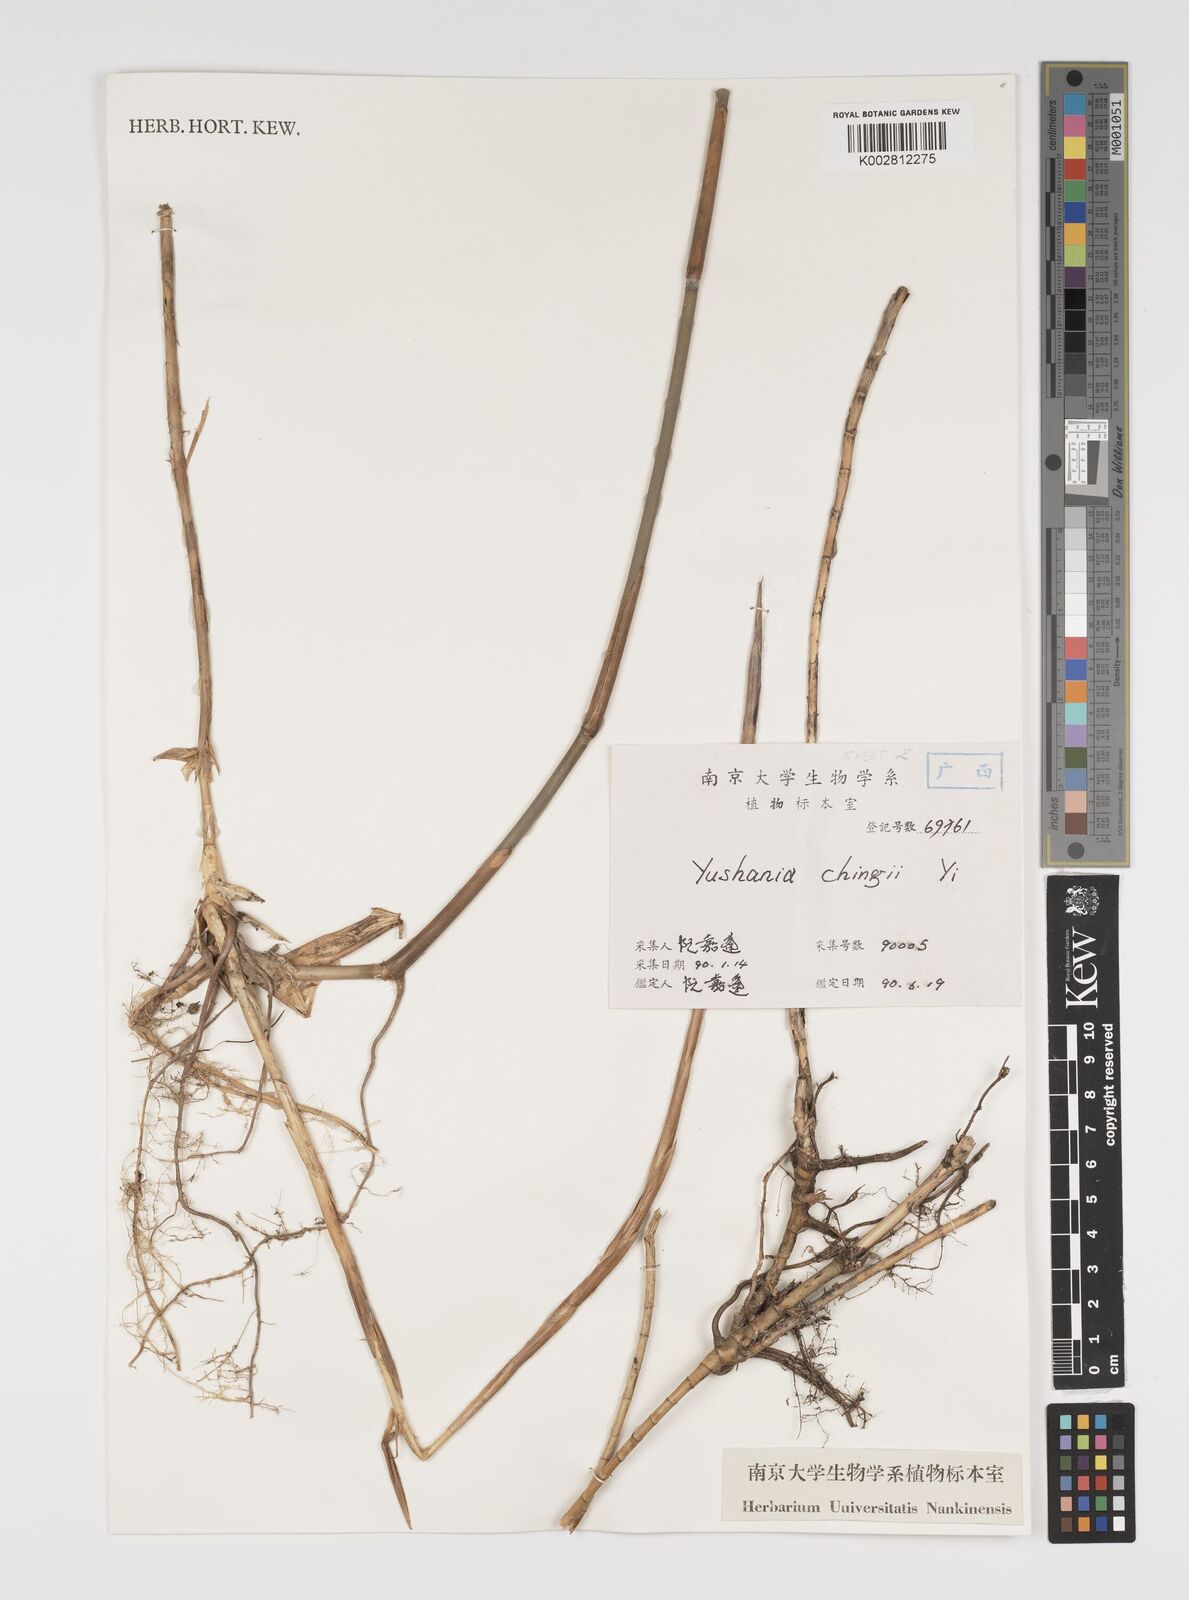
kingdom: Plantae
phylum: Tracheophyta
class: Liliopsida
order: Poales
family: Poaceae
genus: Yushania
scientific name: Yushania brevipaniculata
